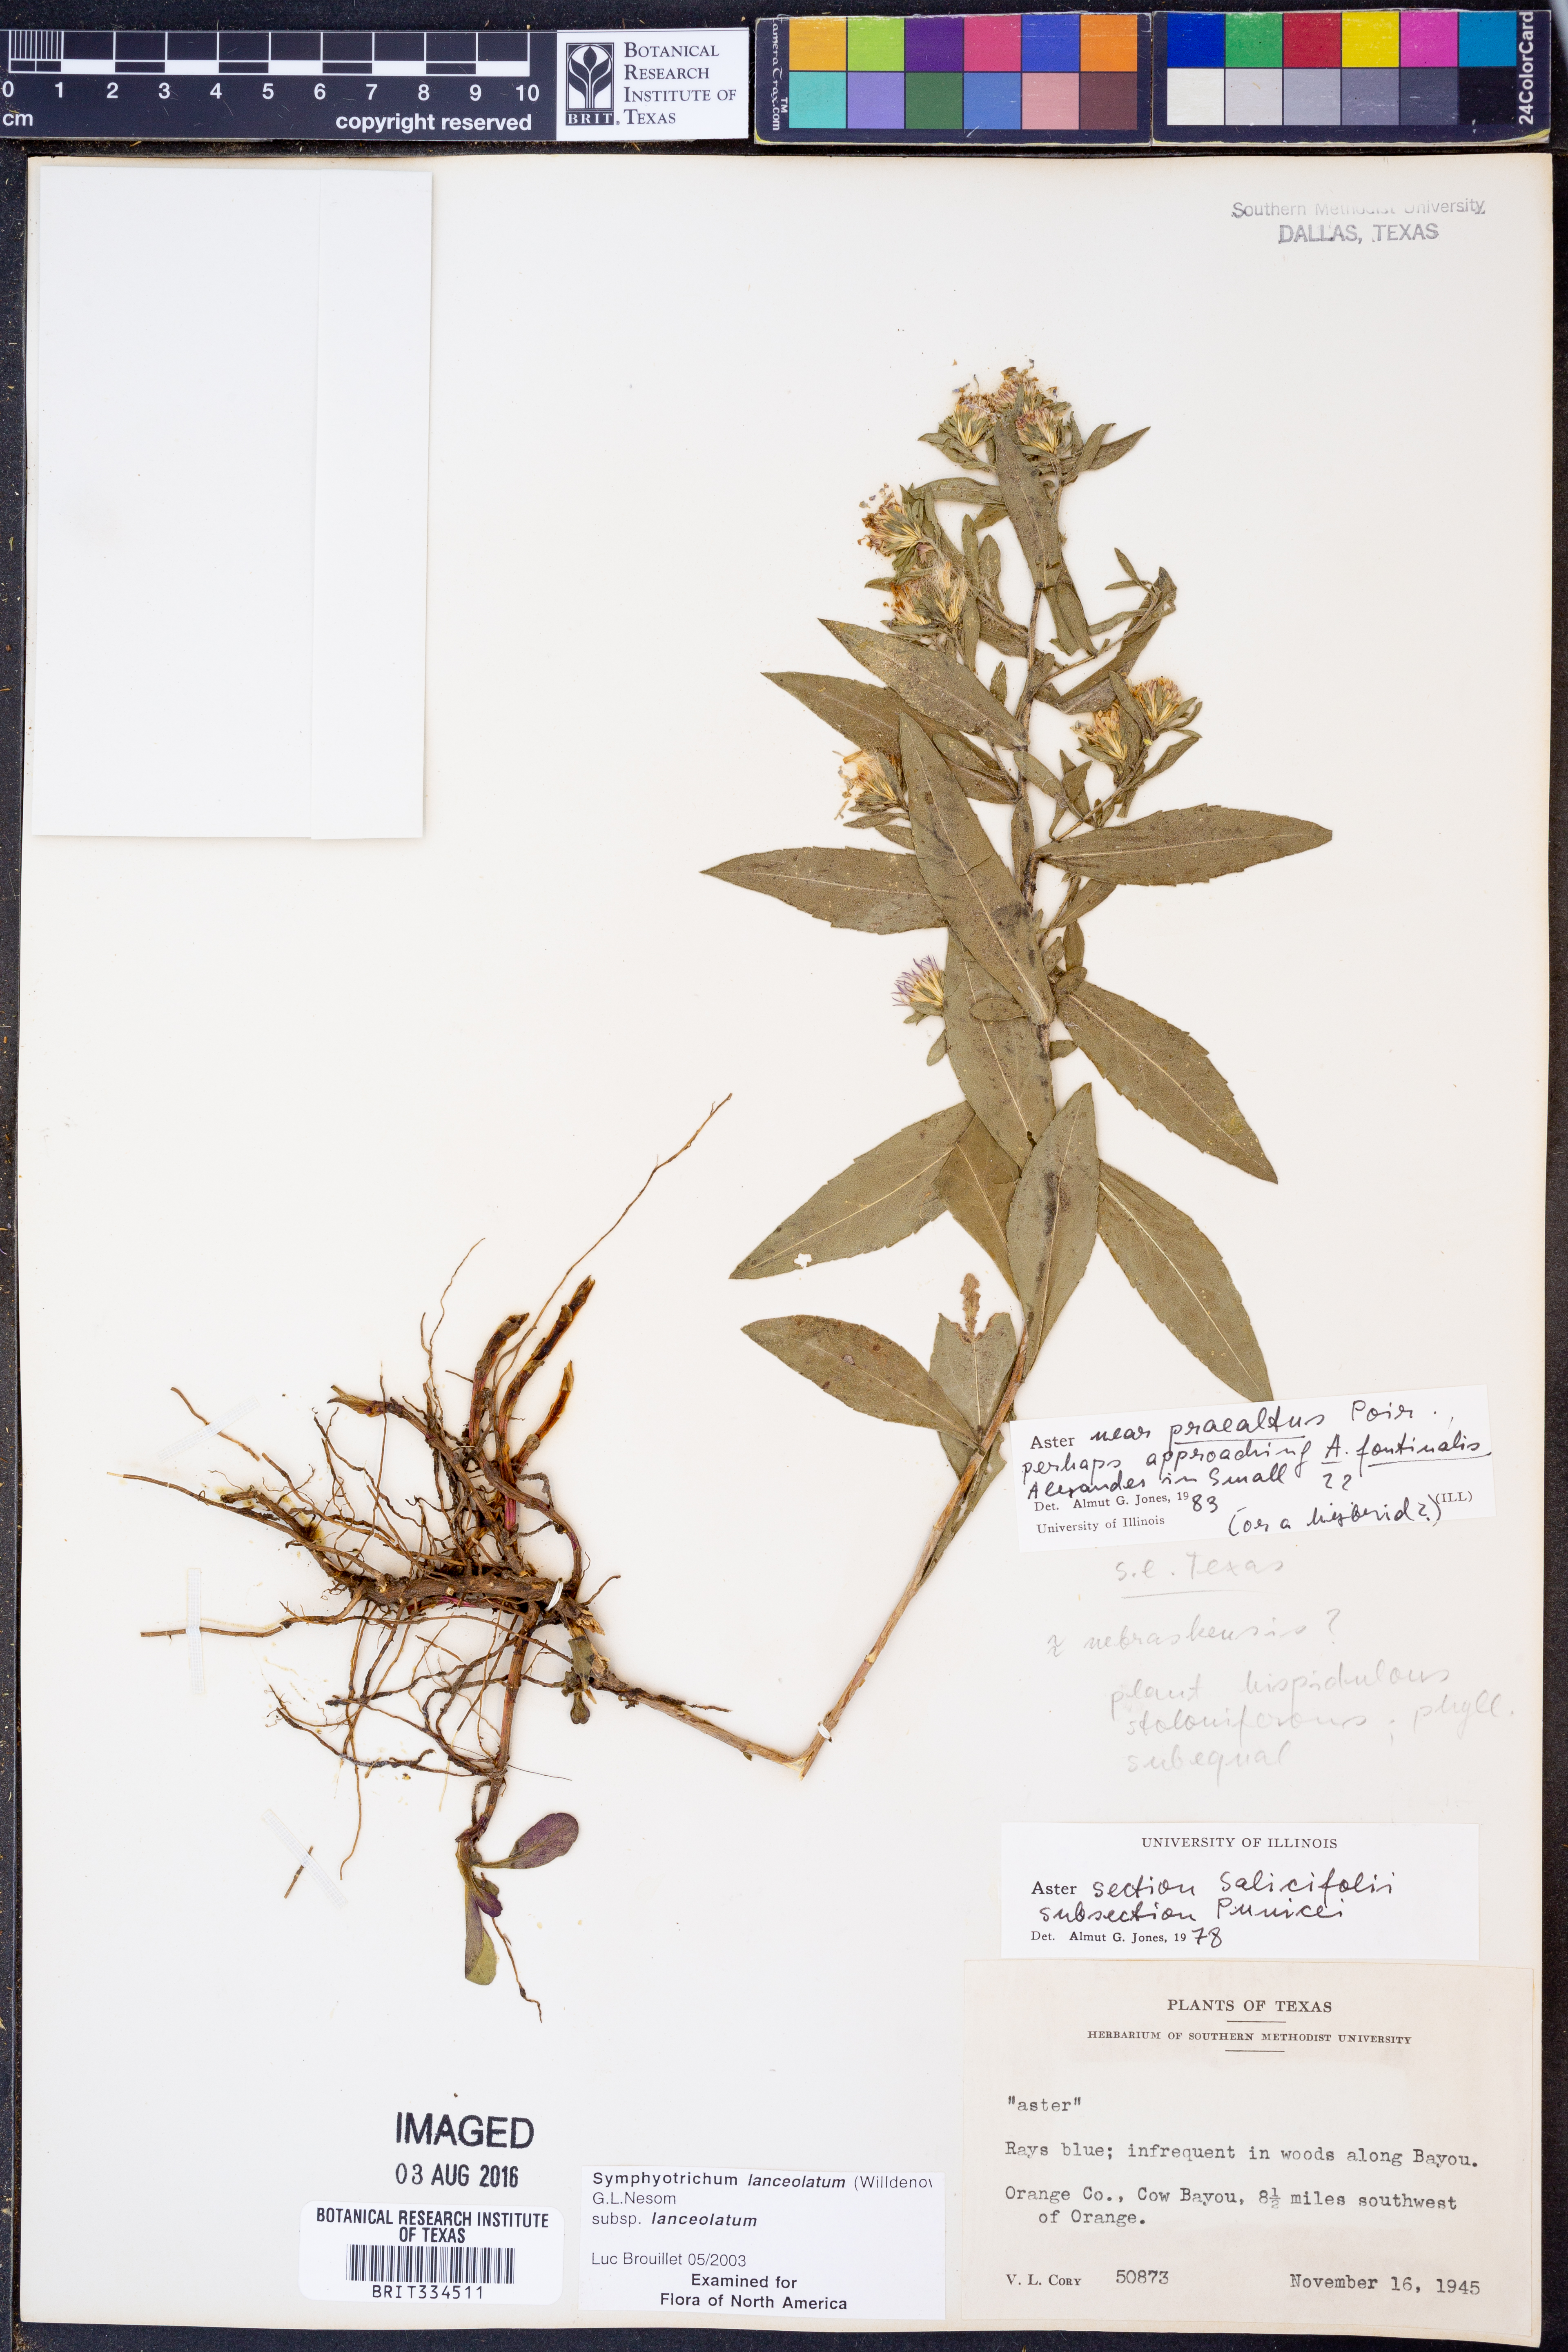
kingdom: Plantae
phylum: Tracheophyta
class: Magnoliopsida
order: Asterales
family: Asteraceae
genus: Symphyotrichum
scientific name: Symphyotrichum lanceolatum
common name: Panicled aster
